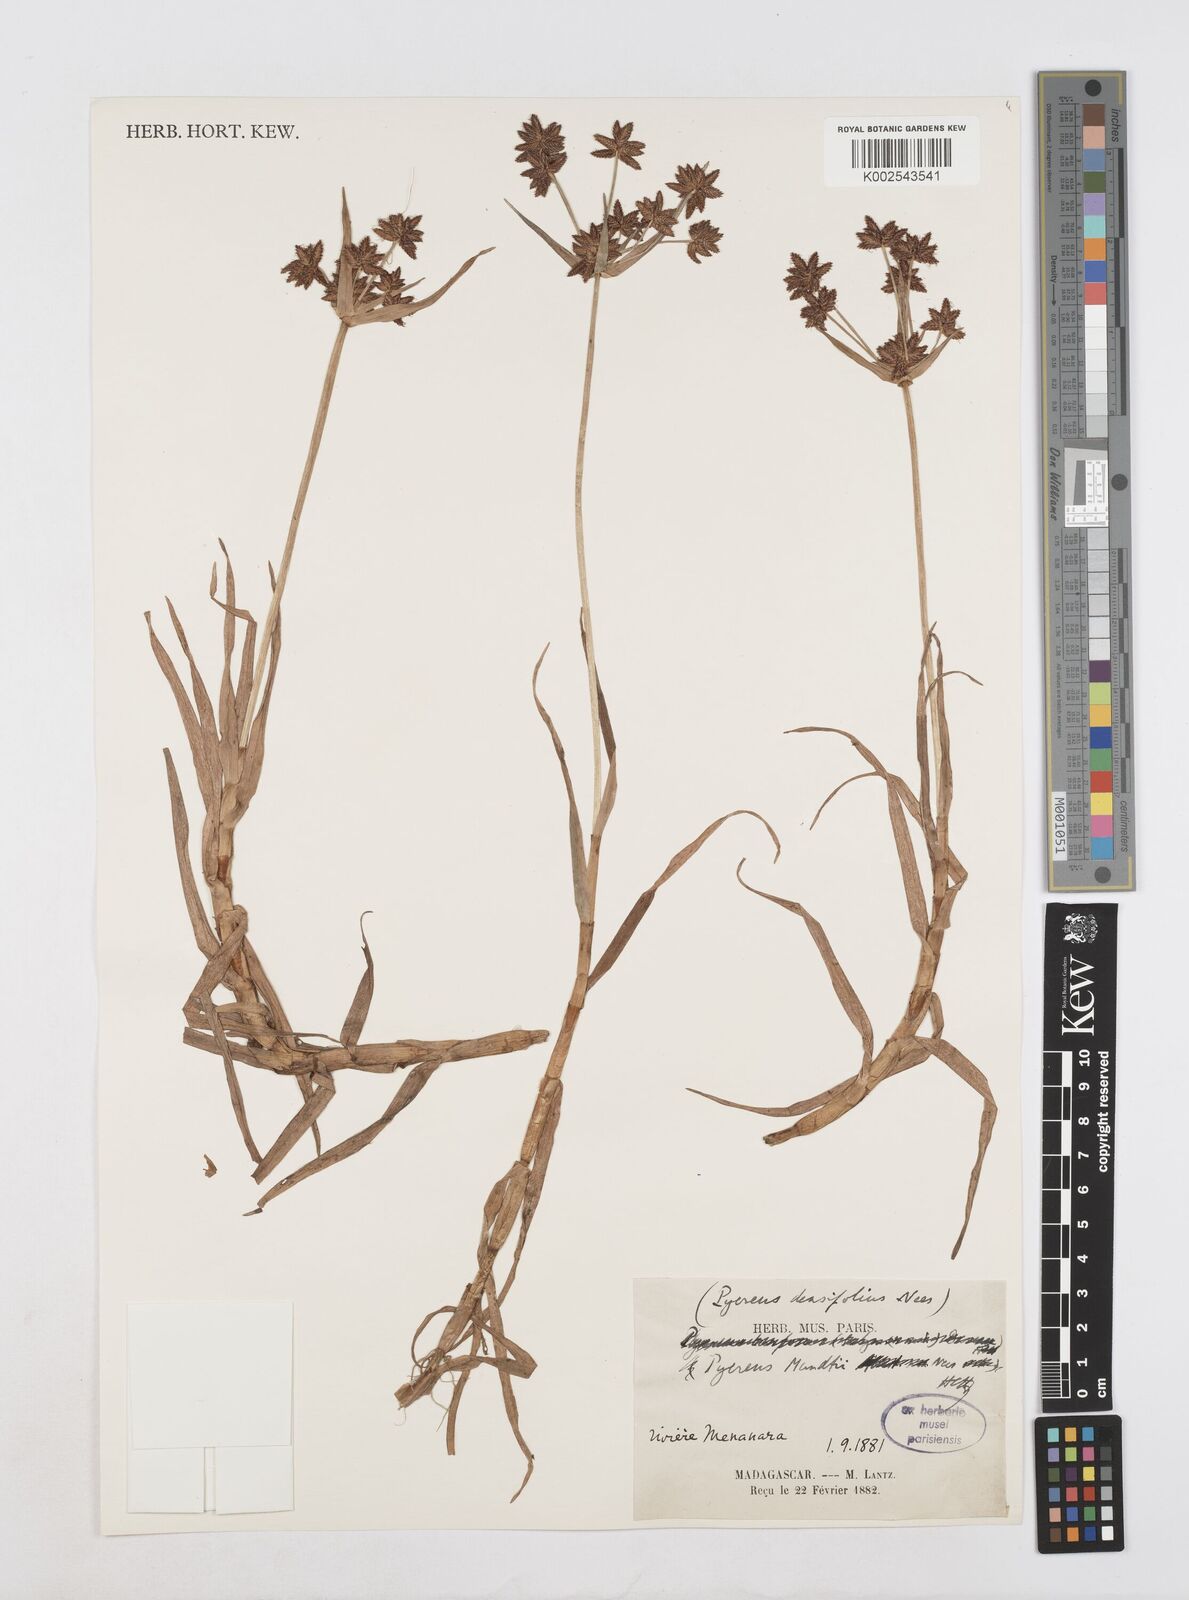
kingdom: Plantae
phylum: Tracheophyta
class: Liliopsida
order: Poales
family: Cyperaceae
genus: Cyperus
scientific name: Cyperus mundii
